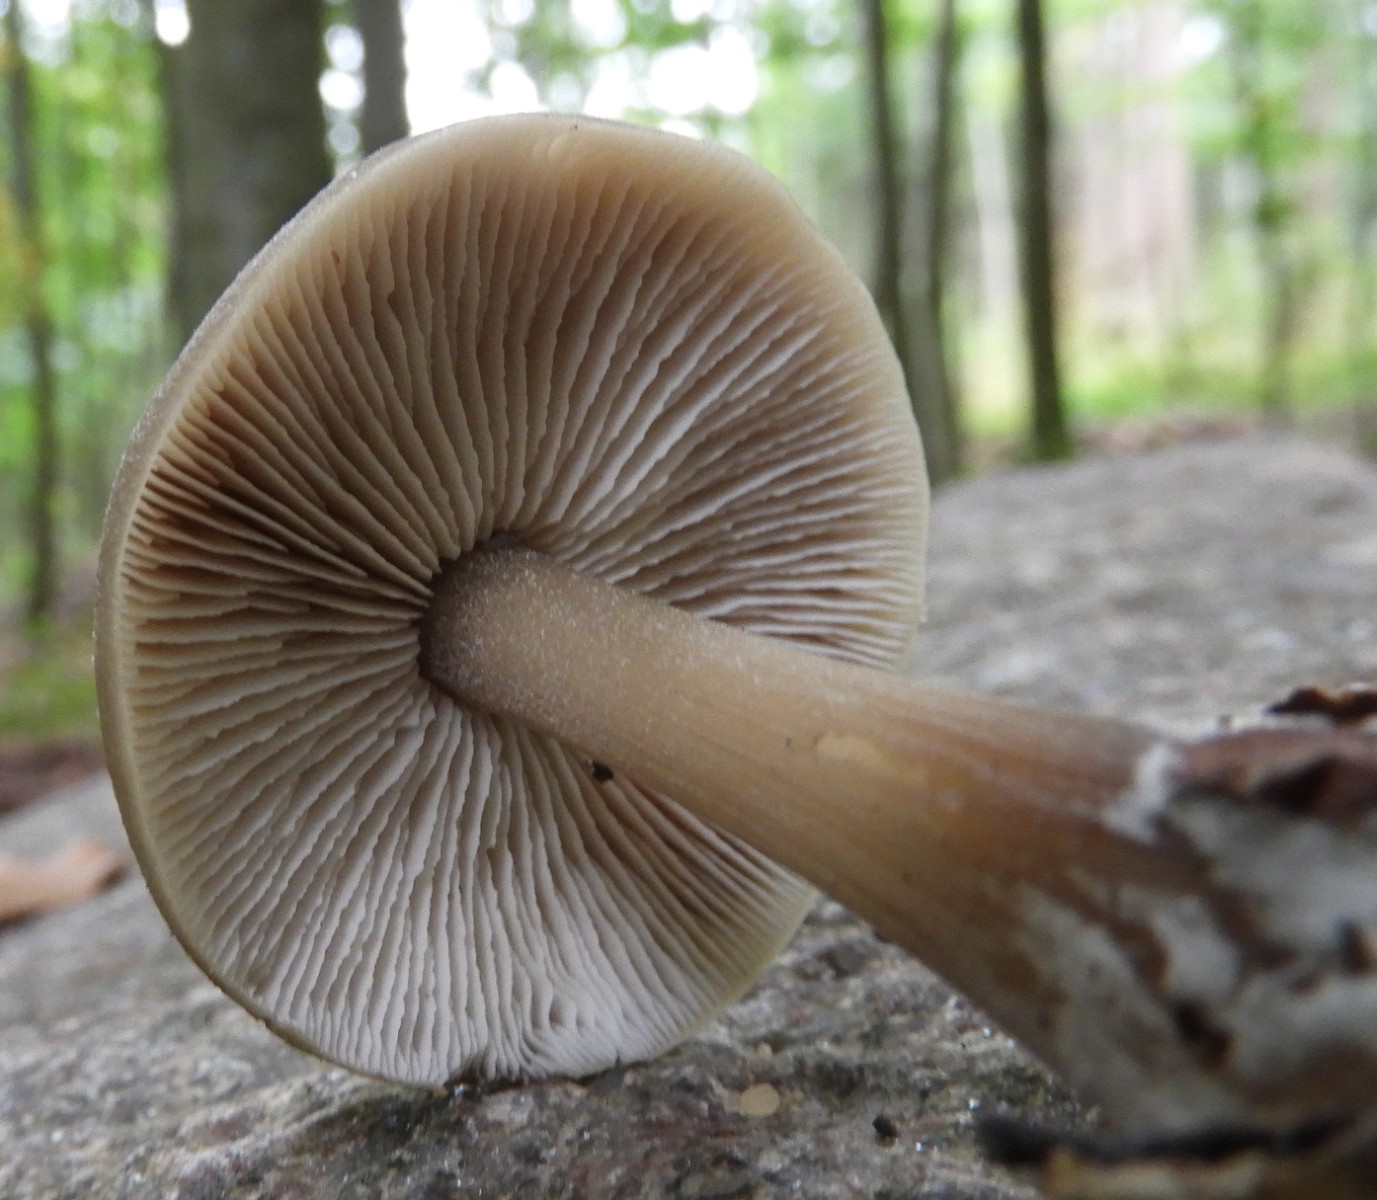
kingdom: Fungi
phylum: Basidiomycota
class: Agaricomycetes
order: Agaricales
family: Omphalotaceae
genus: Rhodocollybia
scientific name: Rhodocollybia asema
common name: horngrå fladhat
